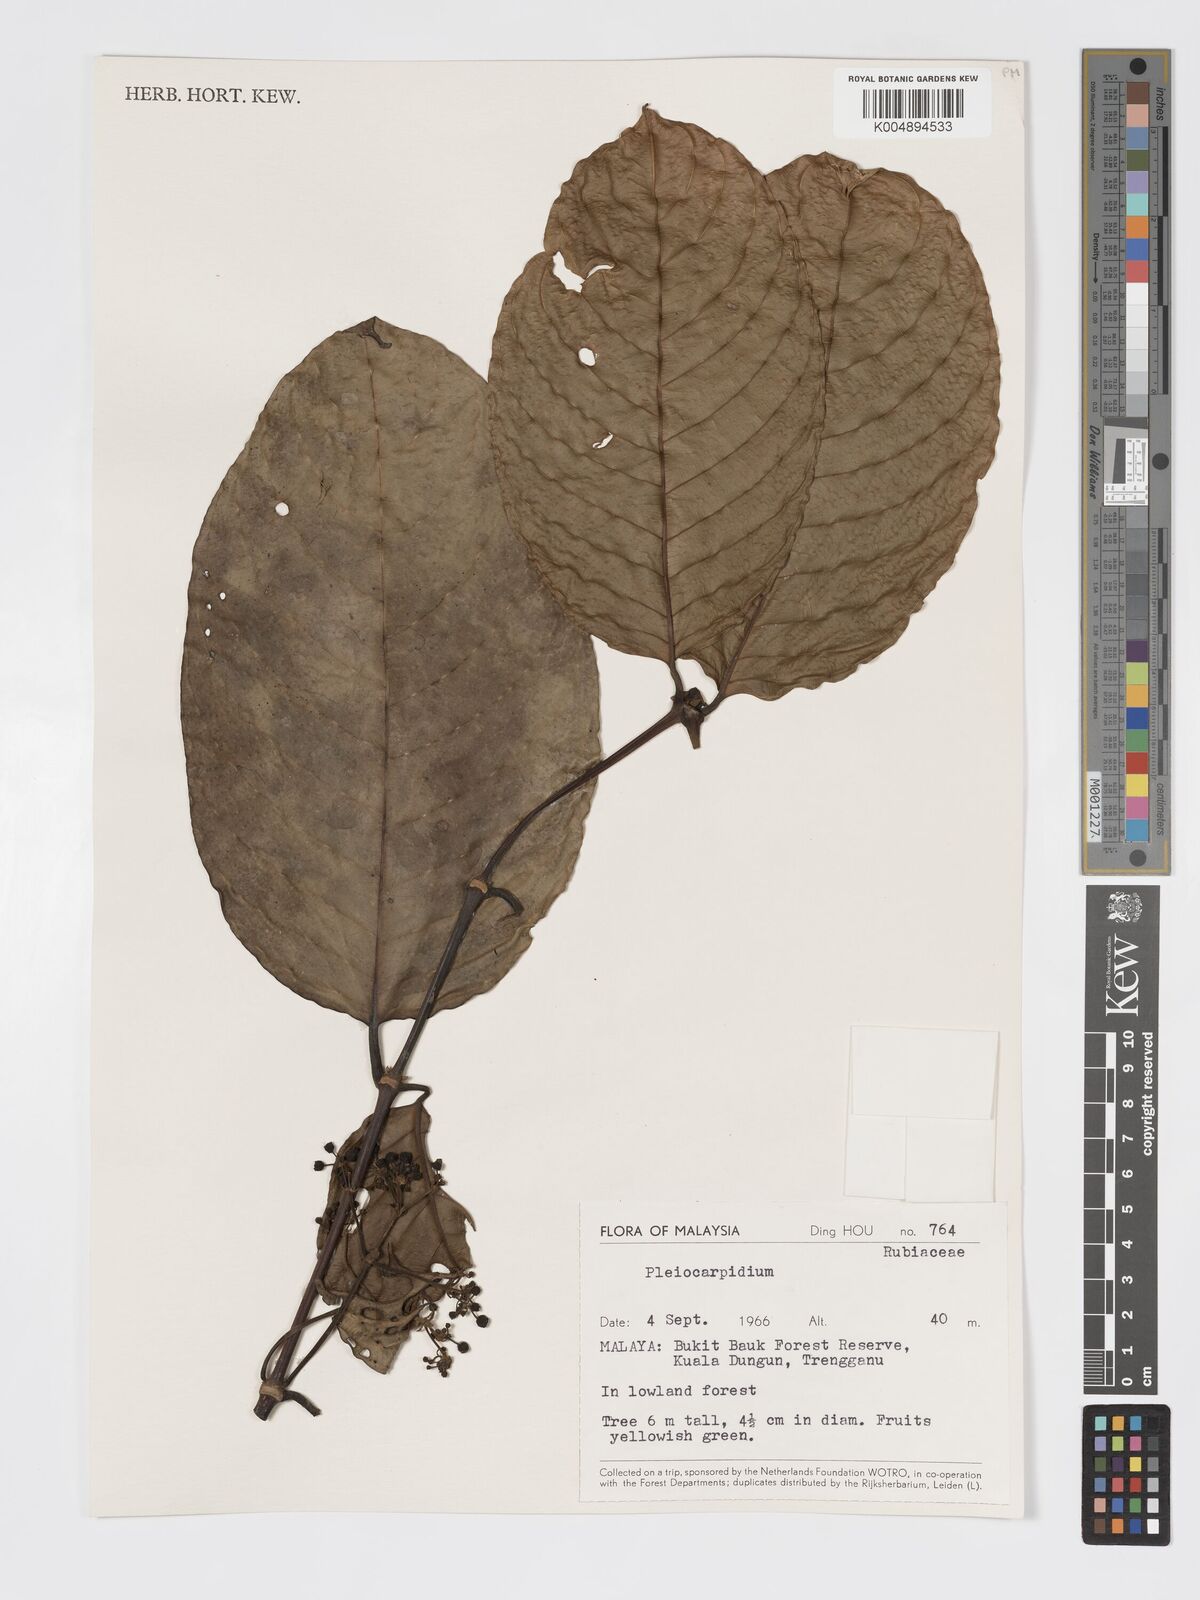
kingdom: Plantae
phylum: Tracheophyta
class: Magnoliopsida
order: Gentianales
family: Rubiaceae
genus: Urophyllum
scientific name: Urophyllum malayense
